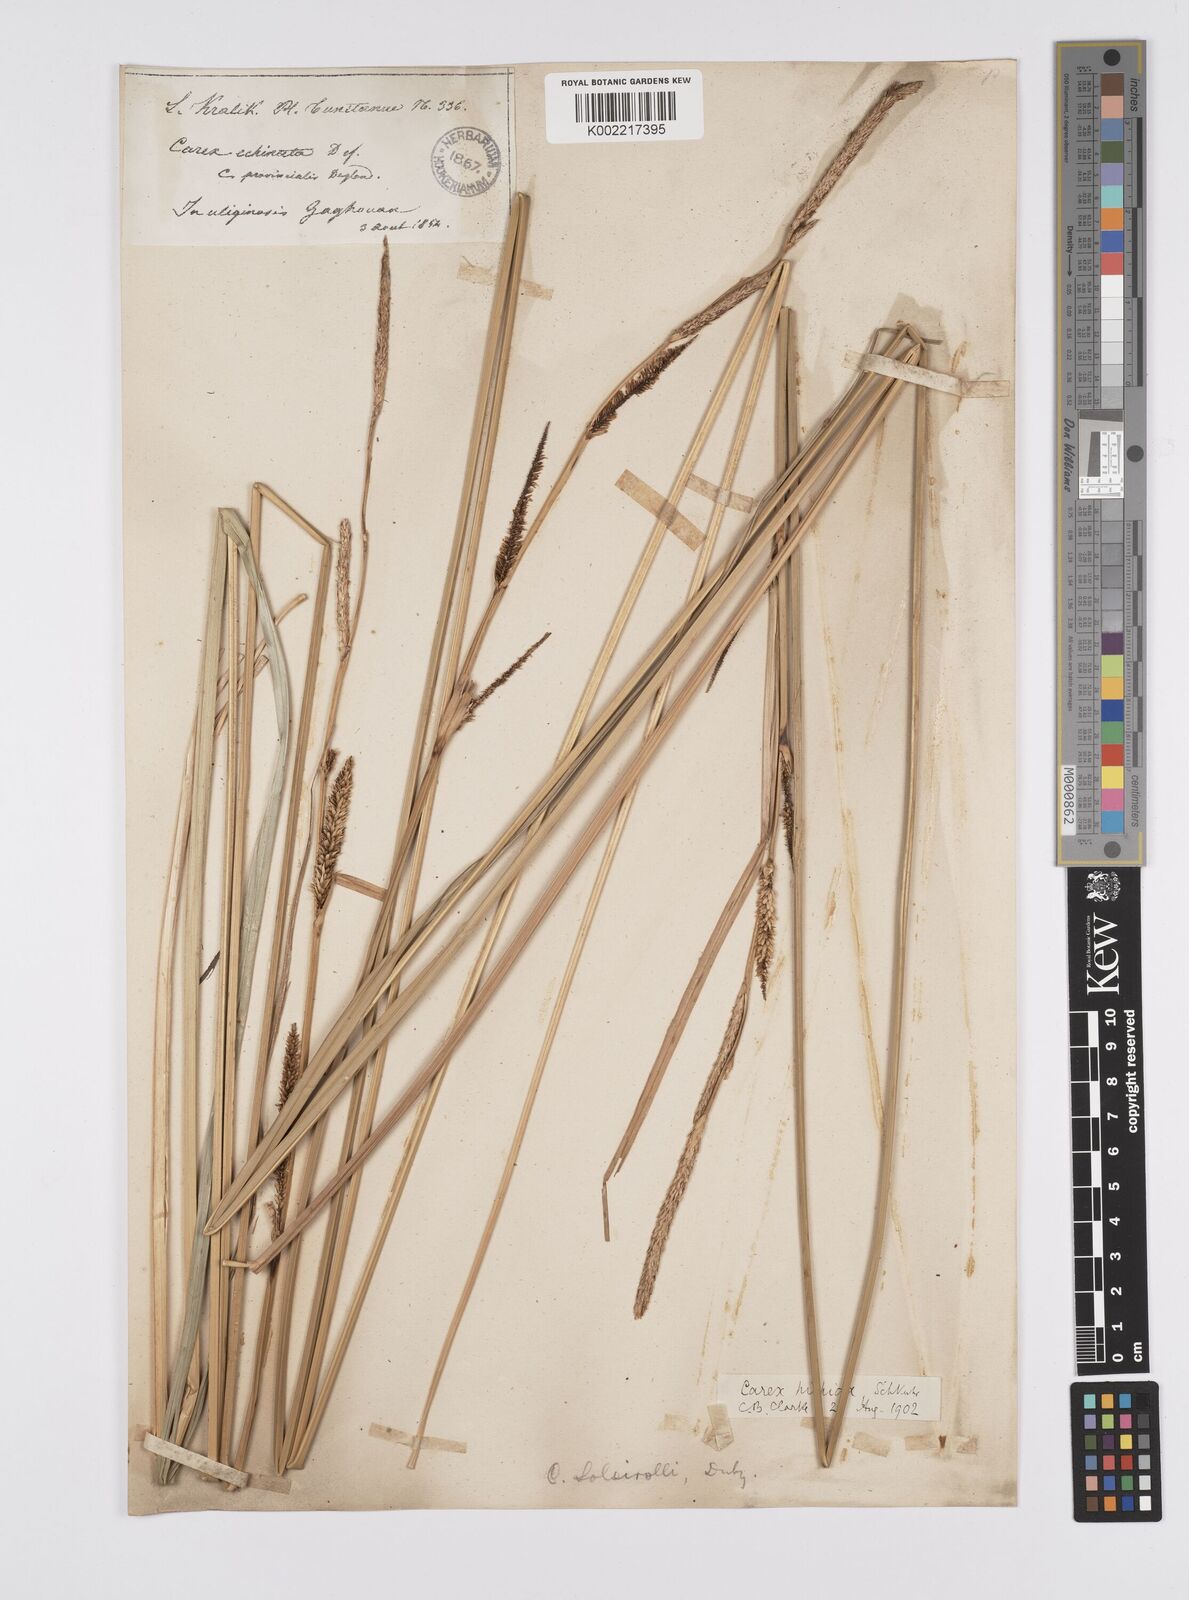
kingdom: Plantae
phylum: Tracheophyta
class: Liliopsida
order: Poales
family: Cyperaceae
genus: Carex
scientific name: Carex hispida
